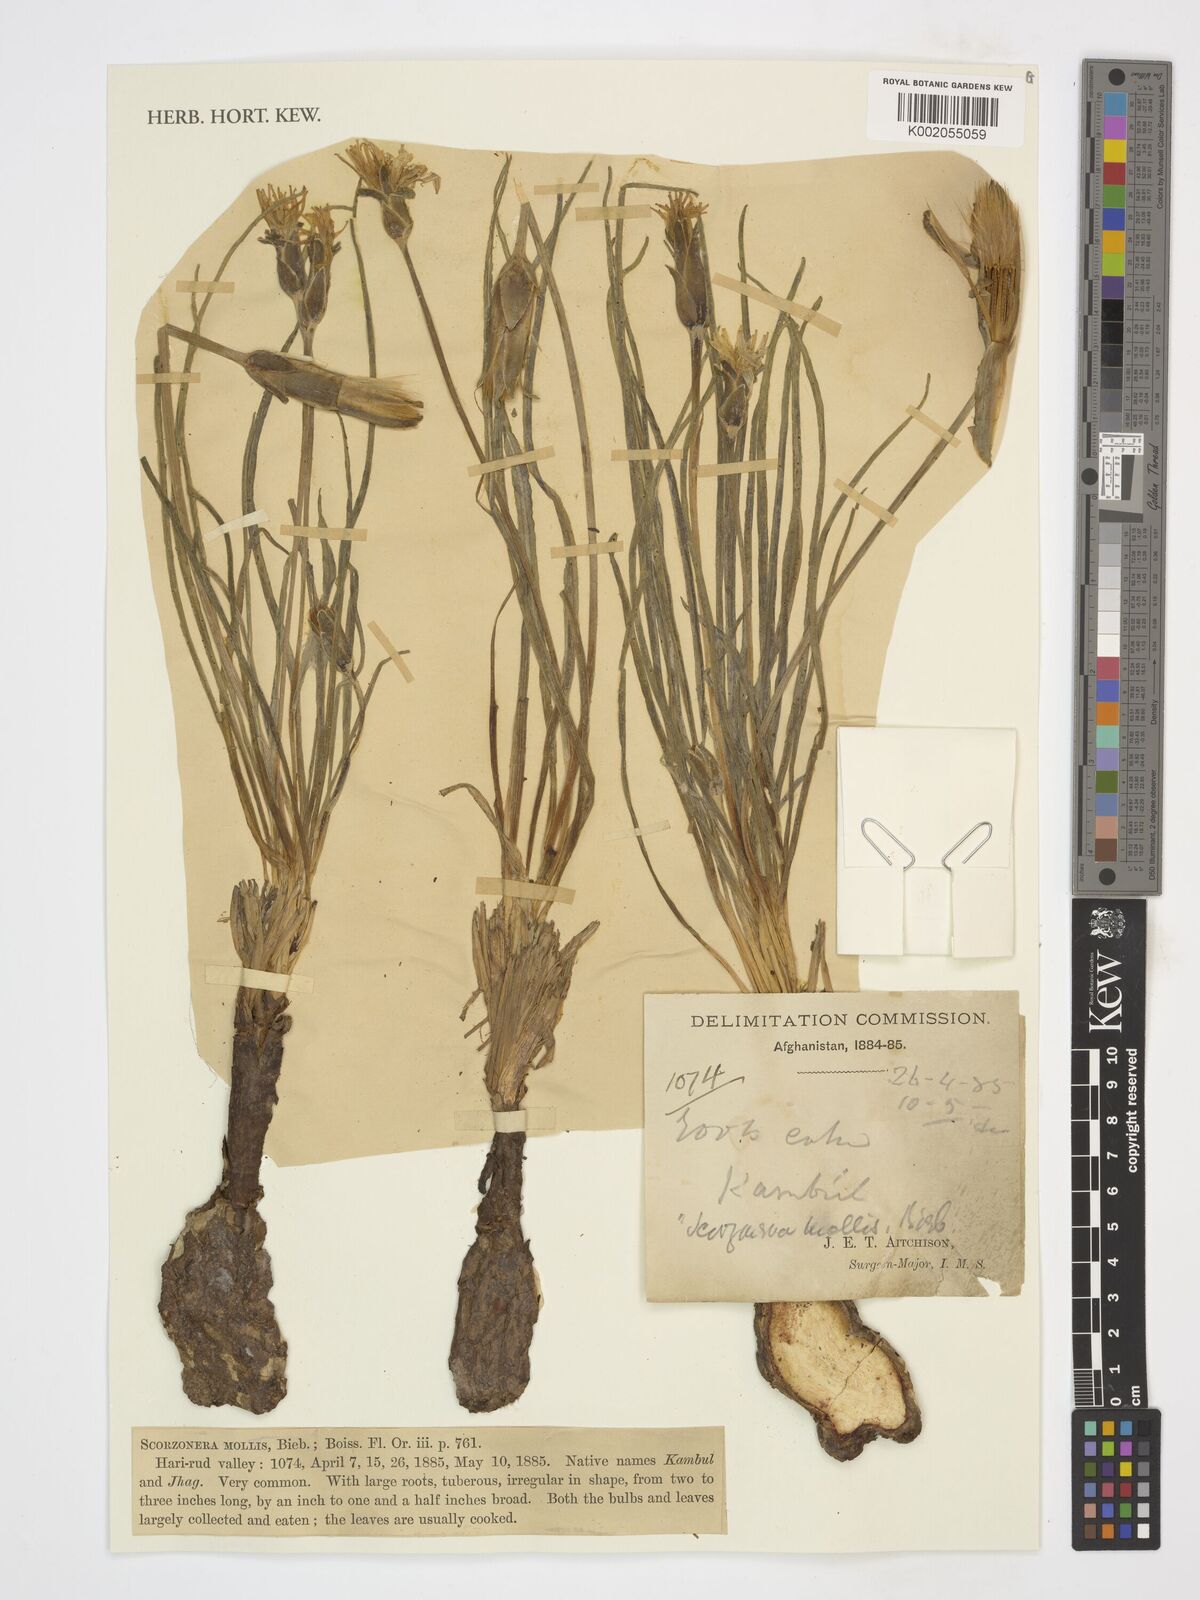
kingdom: Plantae
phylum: Tracheophyta
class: Magnoliopsida
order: Asterales
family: Asteraceae
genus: Candollea
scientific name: Candollea mollis
